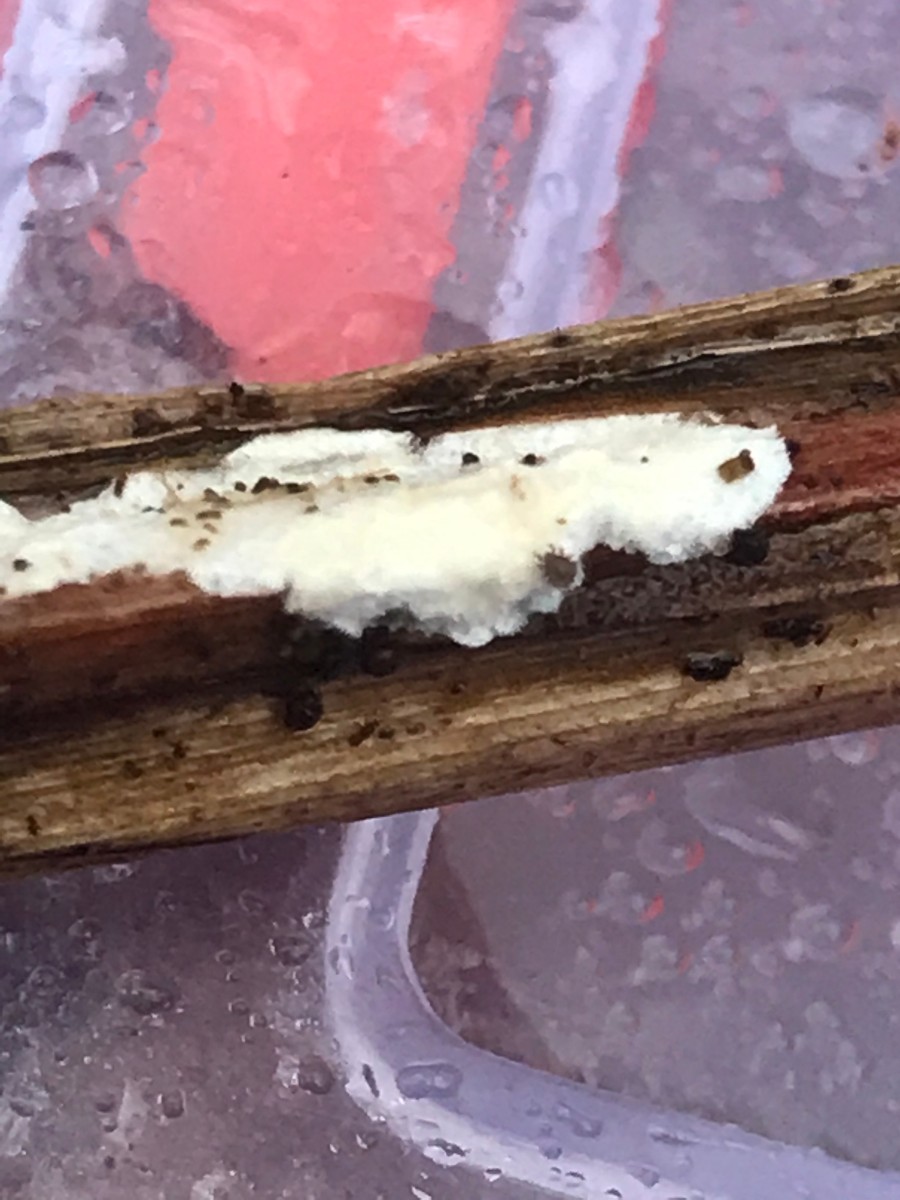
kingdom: Fungi
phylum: Basidiomycota
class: Agaricomycetes
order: Polyporales
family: Polyporaceae
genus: Epithele
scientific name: Epithele typhae
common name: starpig
